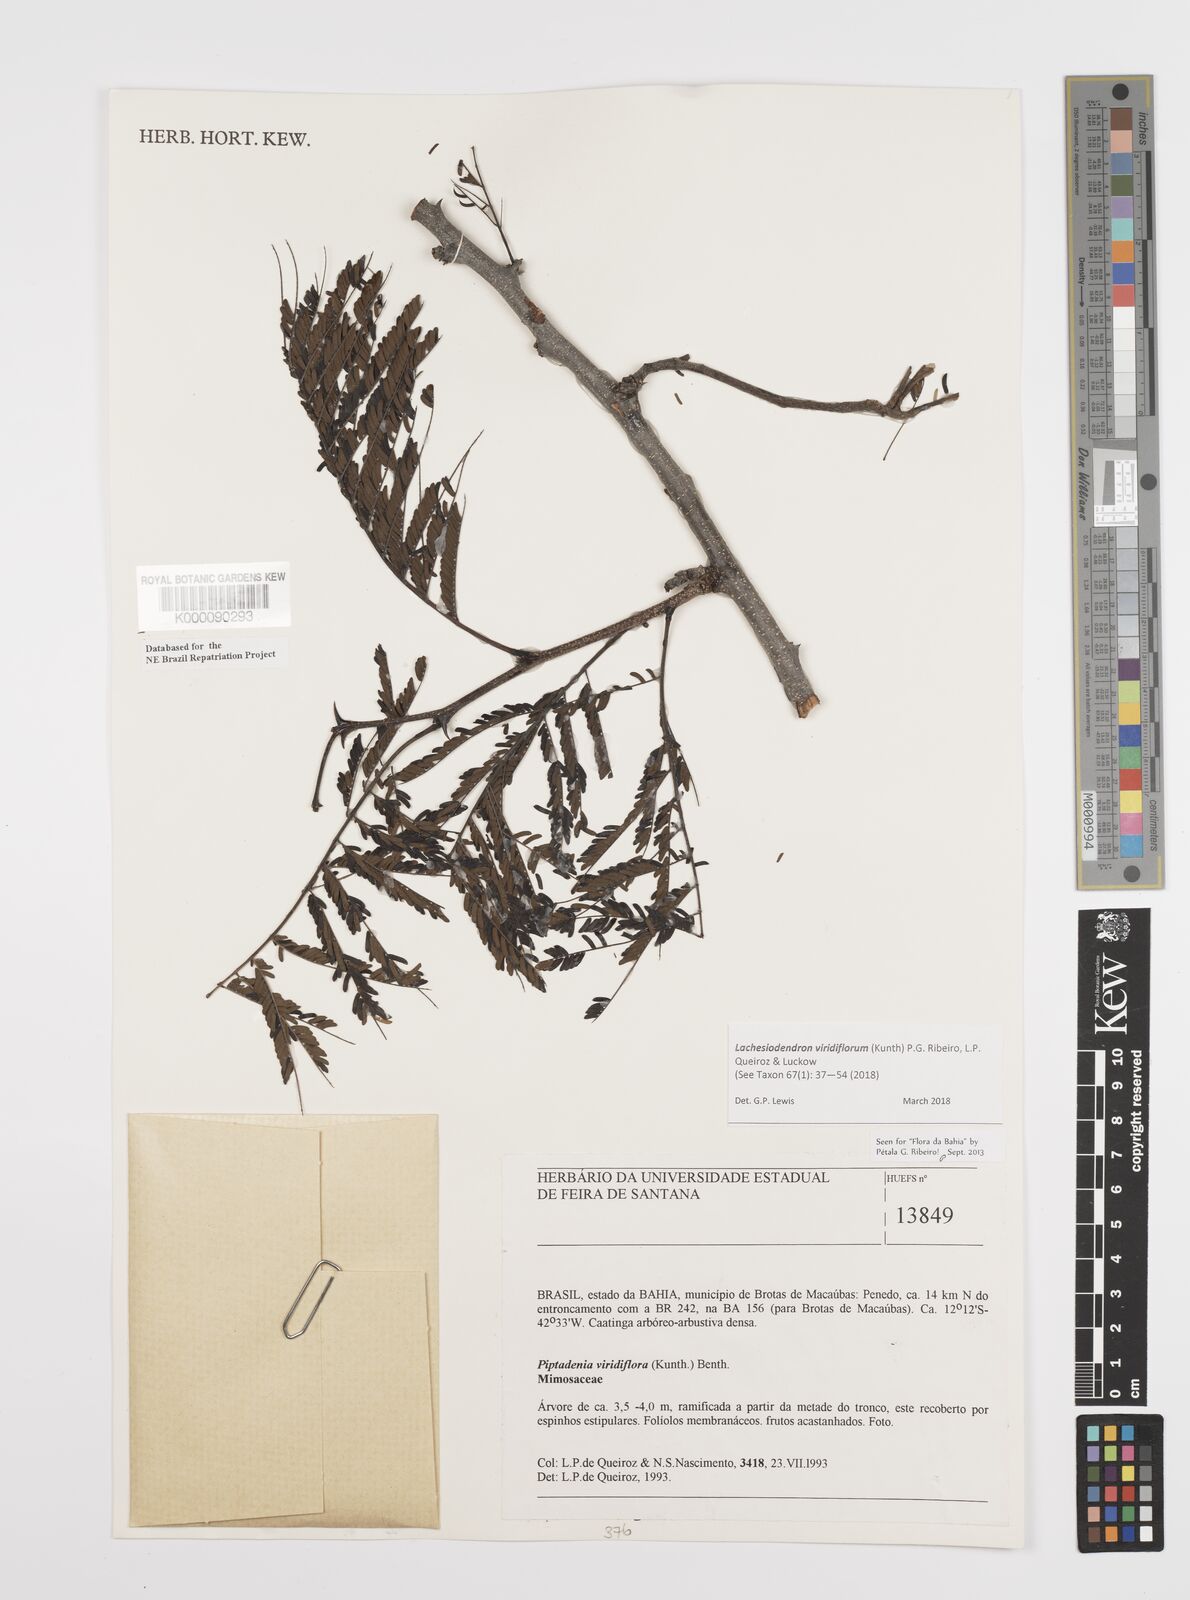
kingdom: Plantae
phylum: Tracheophyta
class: Magnoliopsida
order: Fabales
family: Fabaceae
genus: Lachesiodendron
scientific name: Lachesiodendron viridiflorum
